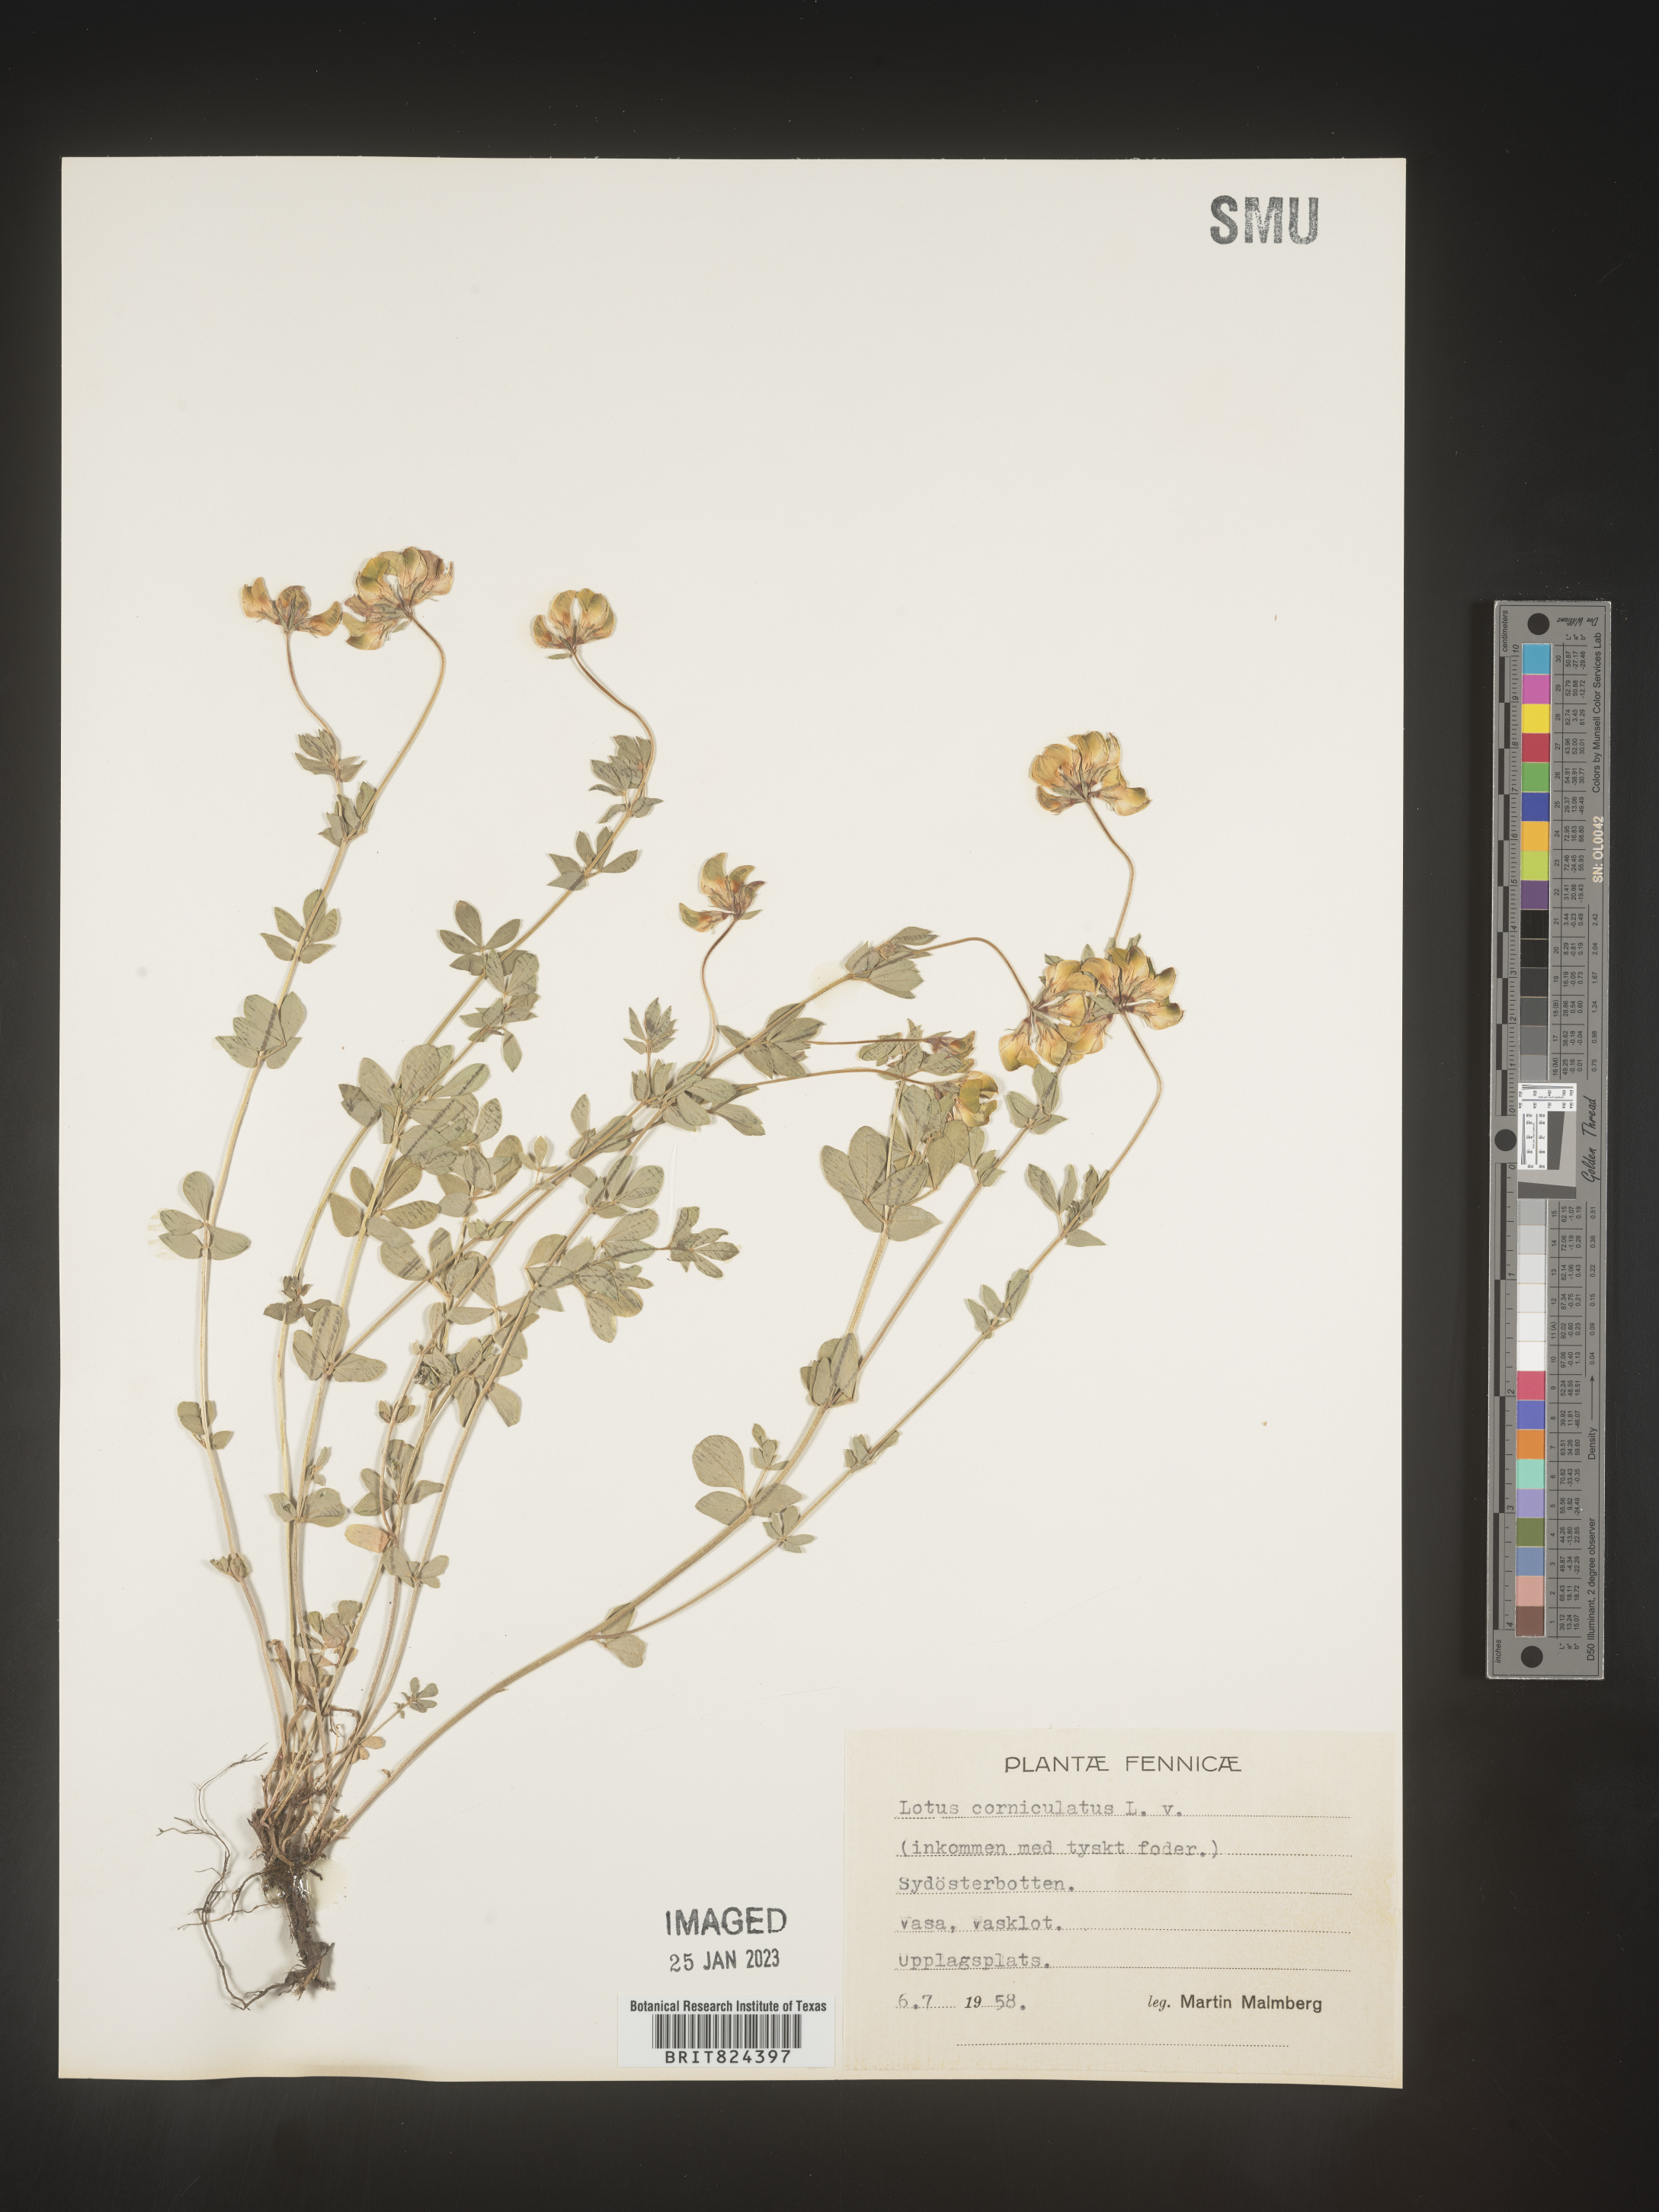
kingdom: Plantae
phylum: Tracheophyta
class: Magnoliopsida
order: Fabales
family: Fabaceae
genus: Lotus
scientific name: Lotus
